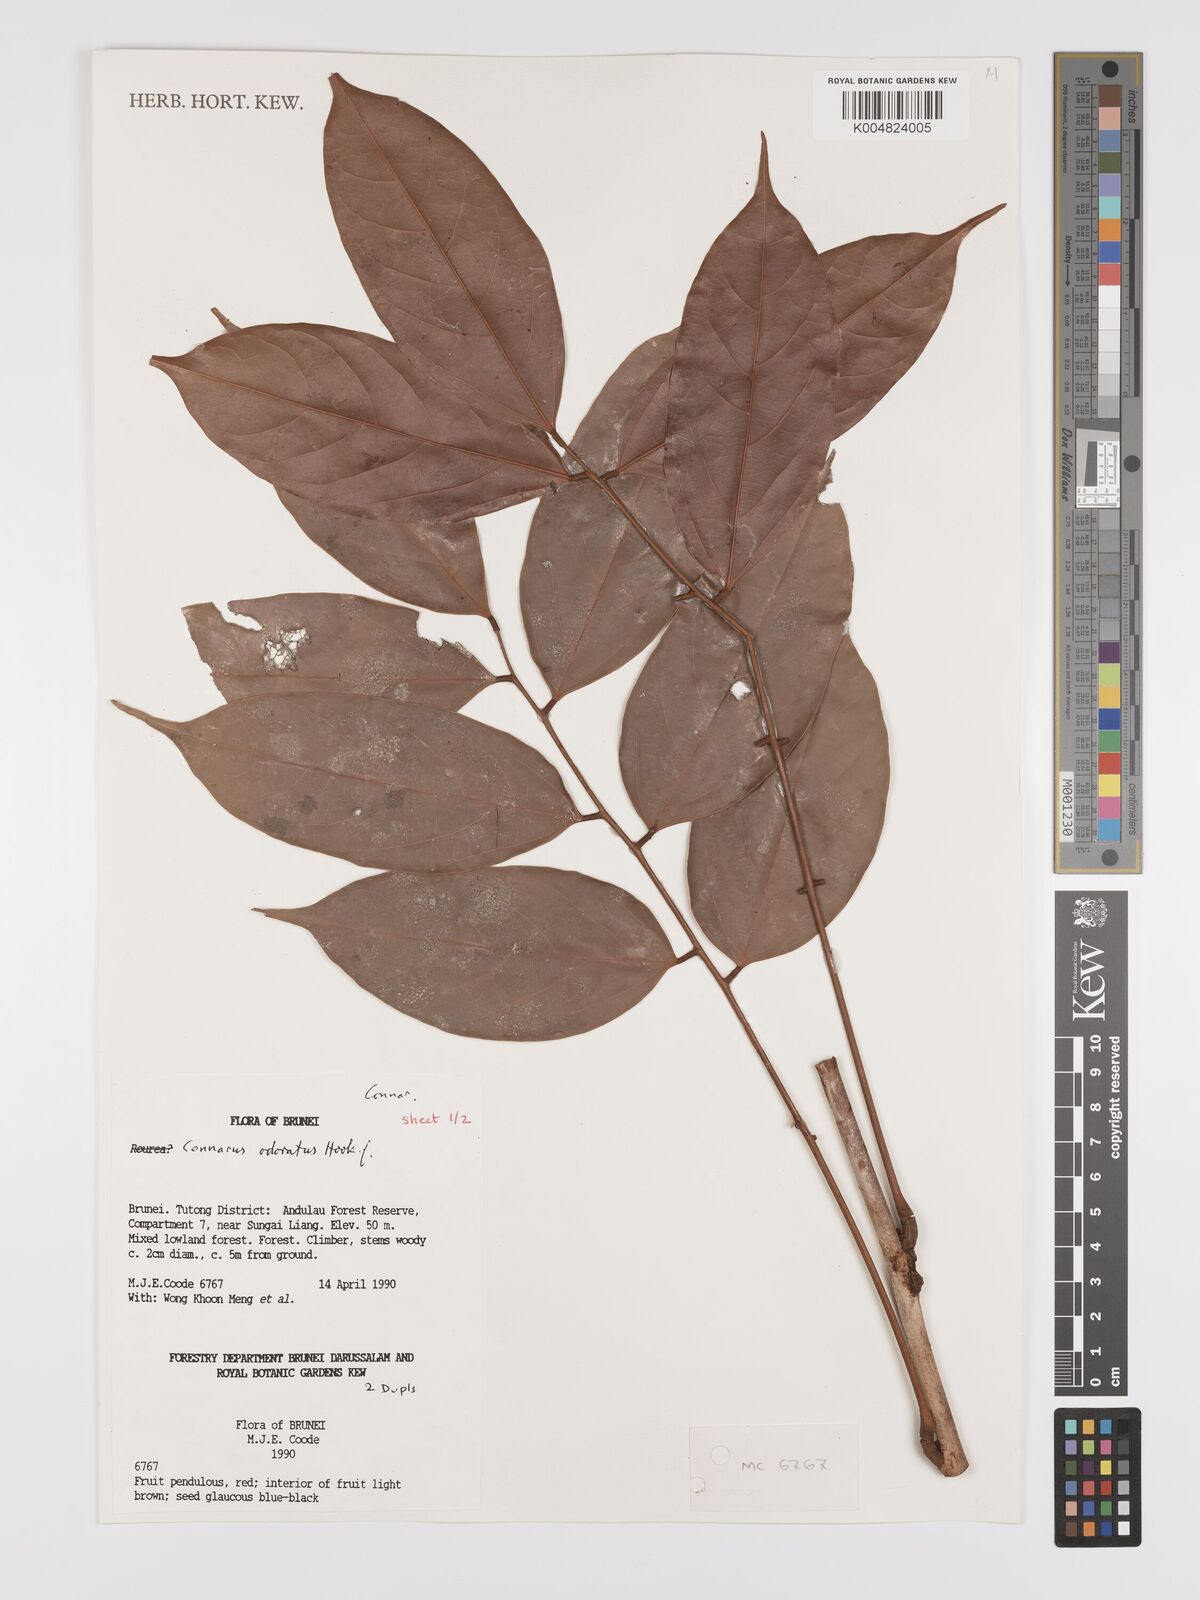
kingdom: Plantae
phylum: Tracheophyta
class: Magnoliopsida
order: Oxalidales
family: Connaraceae
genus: Connarus
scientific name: Connarus odoratus
